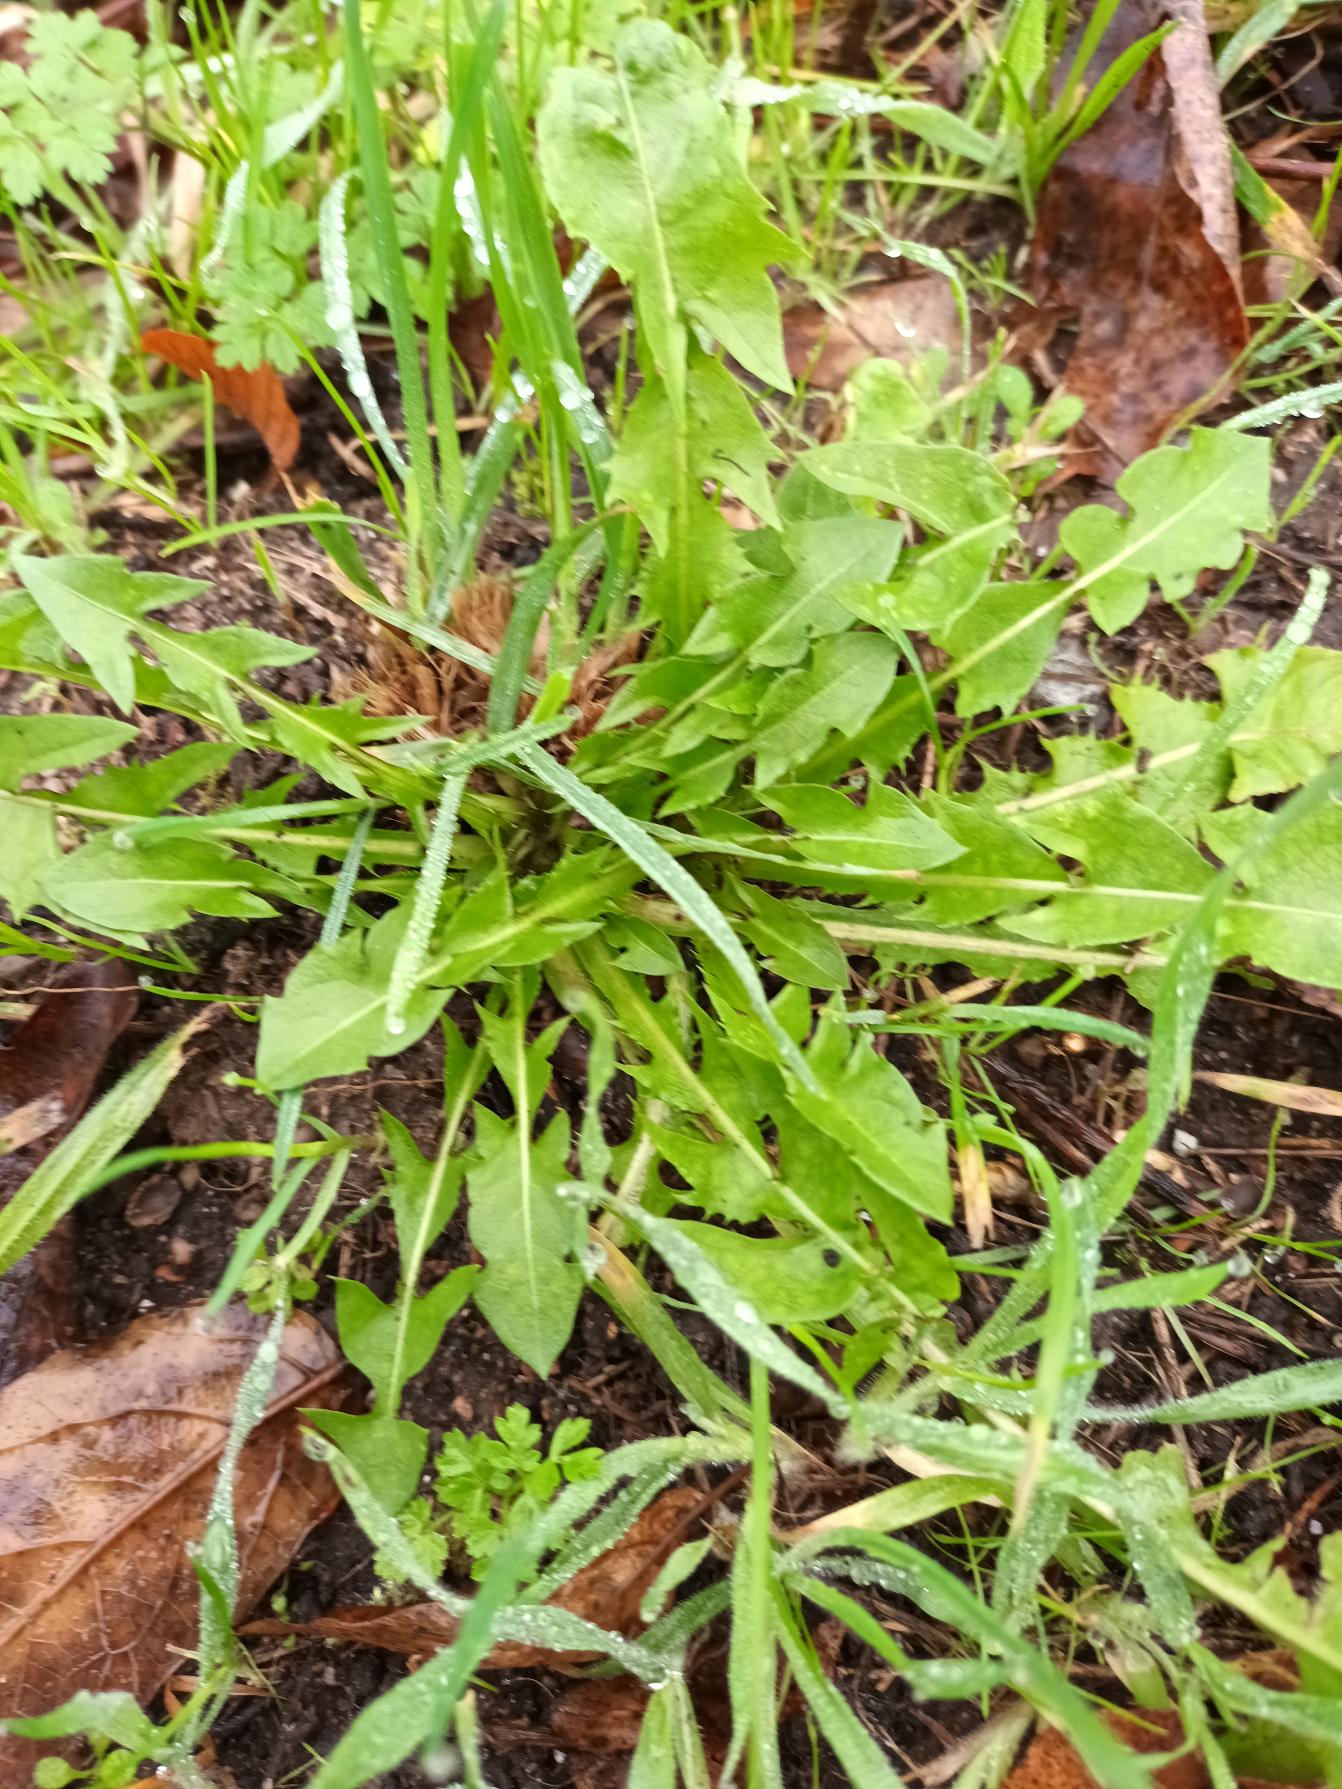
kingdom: Plantae
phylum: Tracheophyta
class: Magnoliopsida
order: Asterales
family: Asteraceae
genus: Taraxacum
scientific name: Taraxacum
